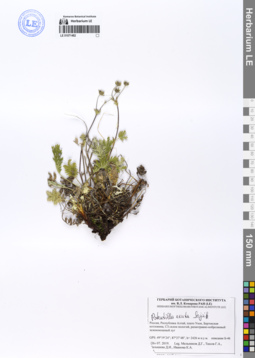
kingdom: Plantae
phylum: Tracheophyta
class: Magnoliopsida
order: Rosales
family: Rosaceae
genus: Potentilla
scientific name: Potentilla exuta
